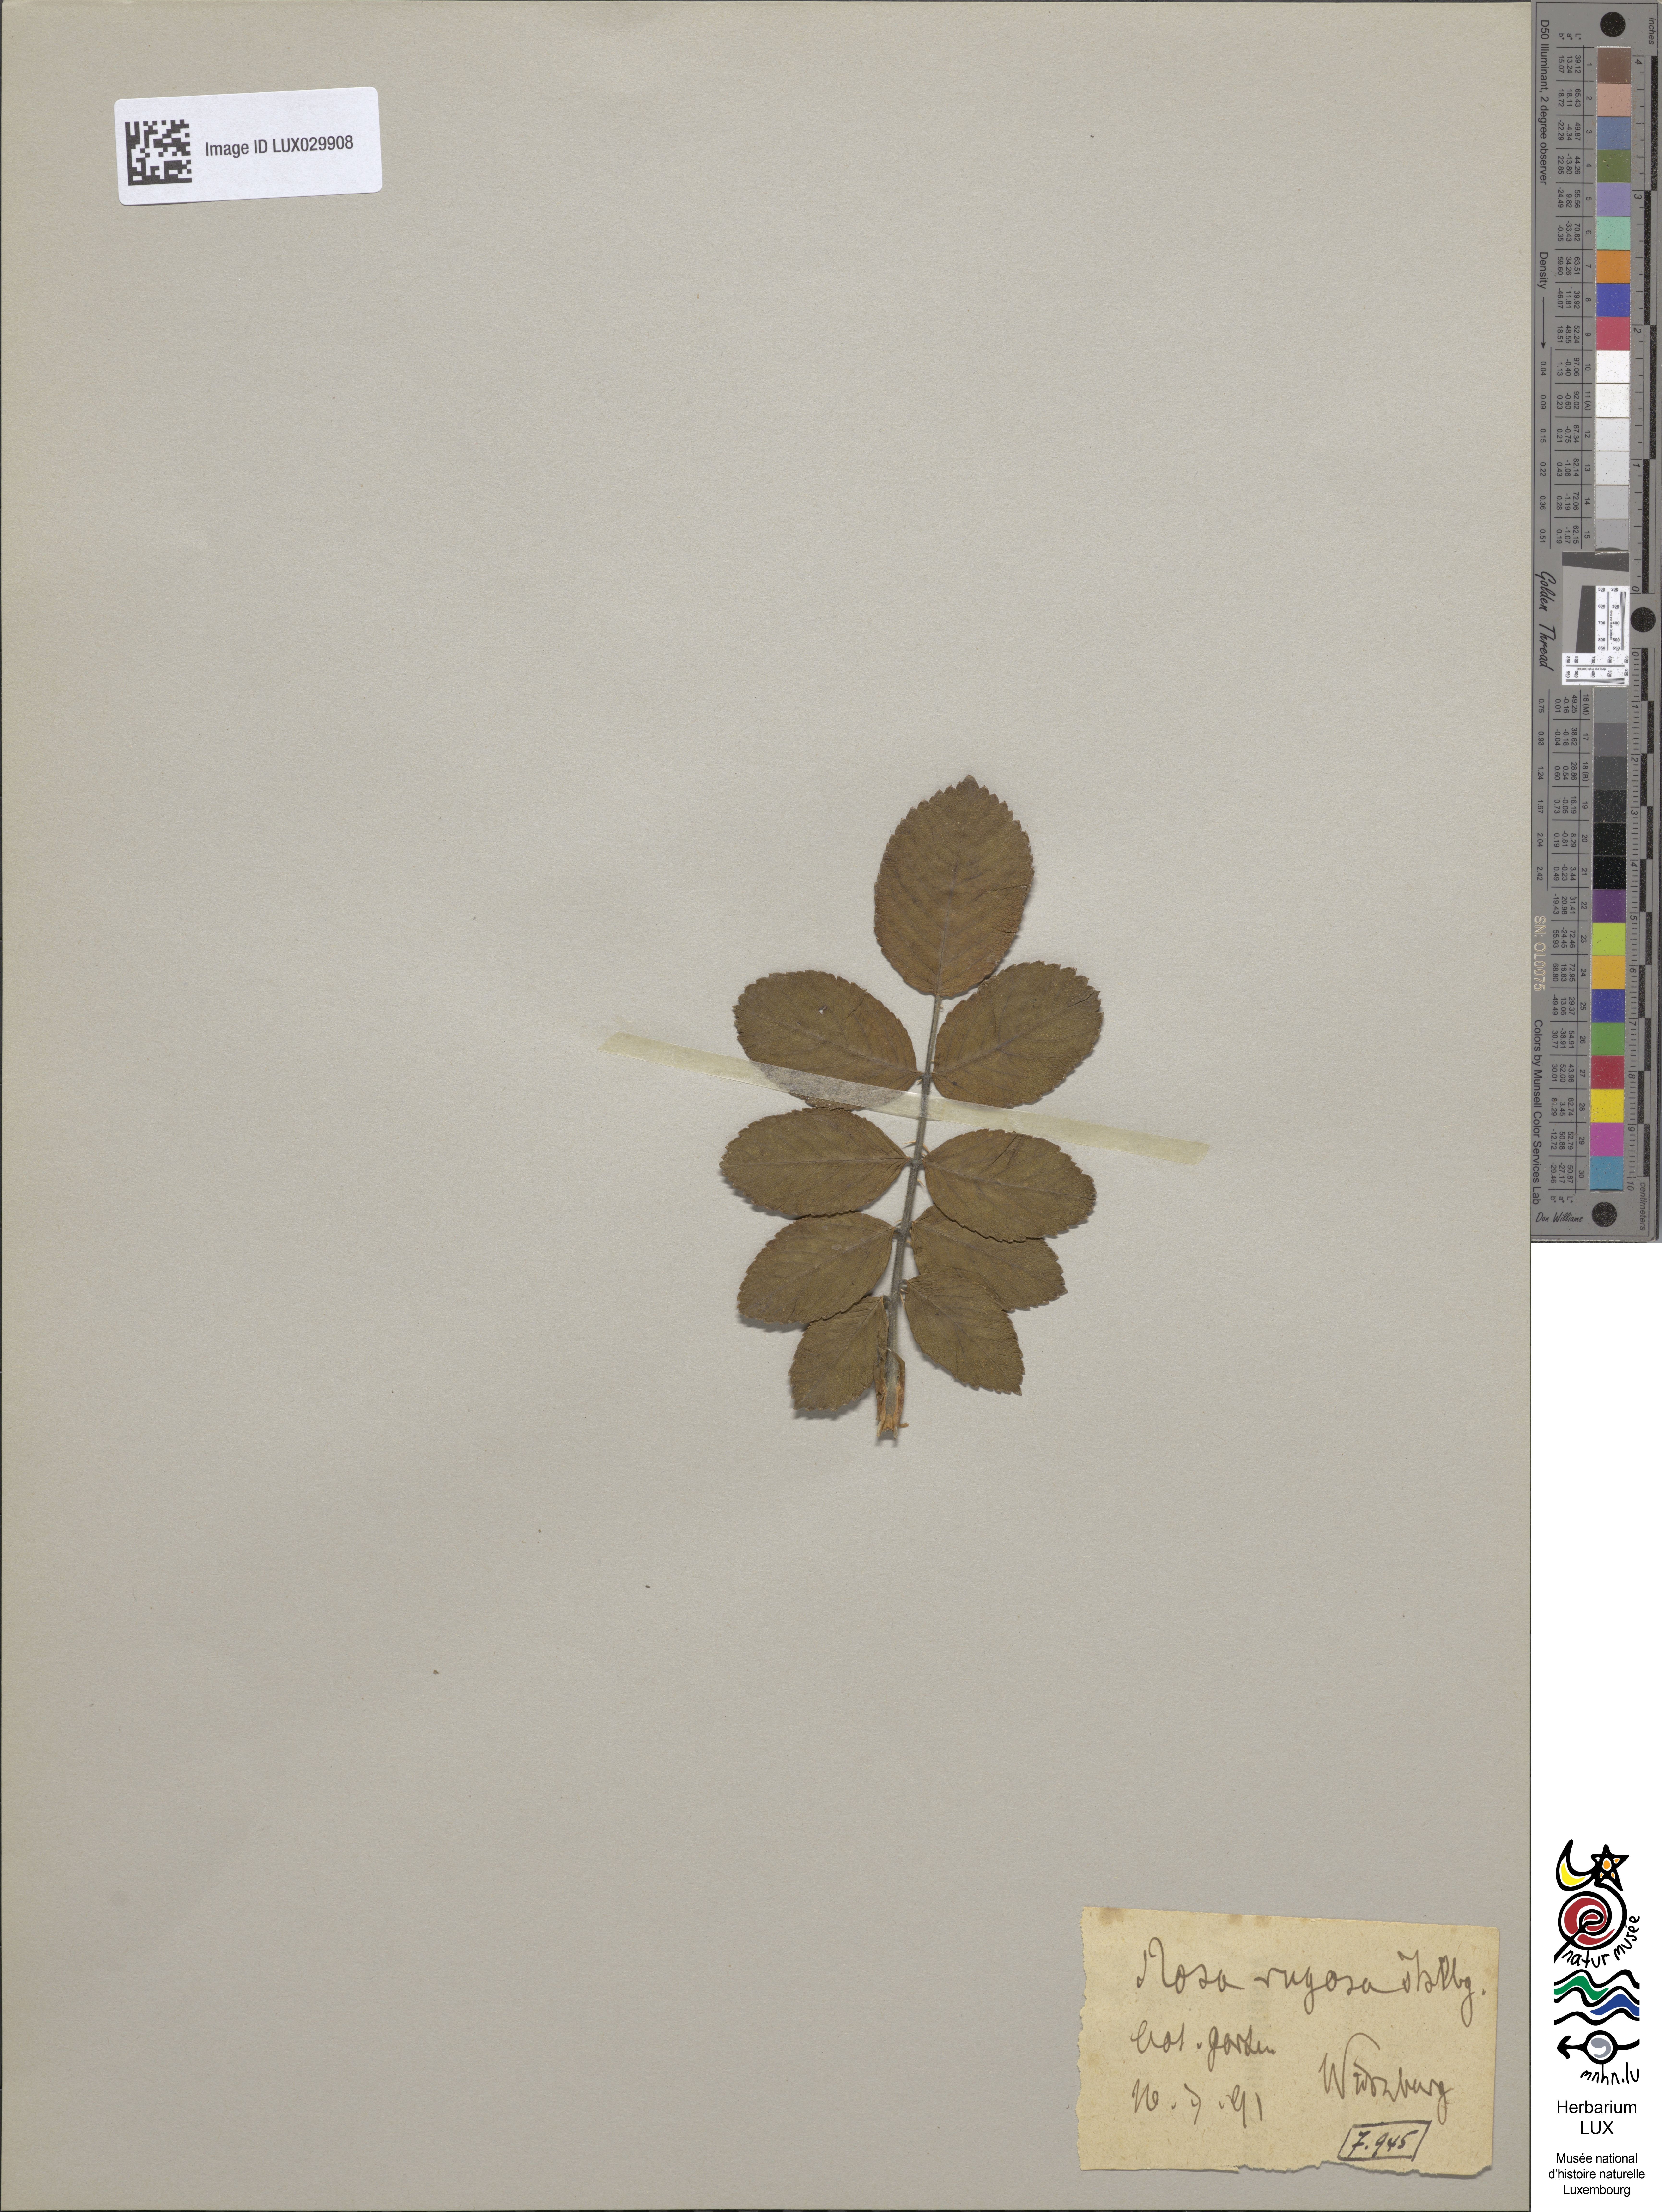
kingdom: Plantae
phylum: Tracheophyta
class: Magnoliopsida
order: Rosales
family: Rosaceae
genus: Rosa
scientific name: Rosa rugosa
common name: Japanese rose
